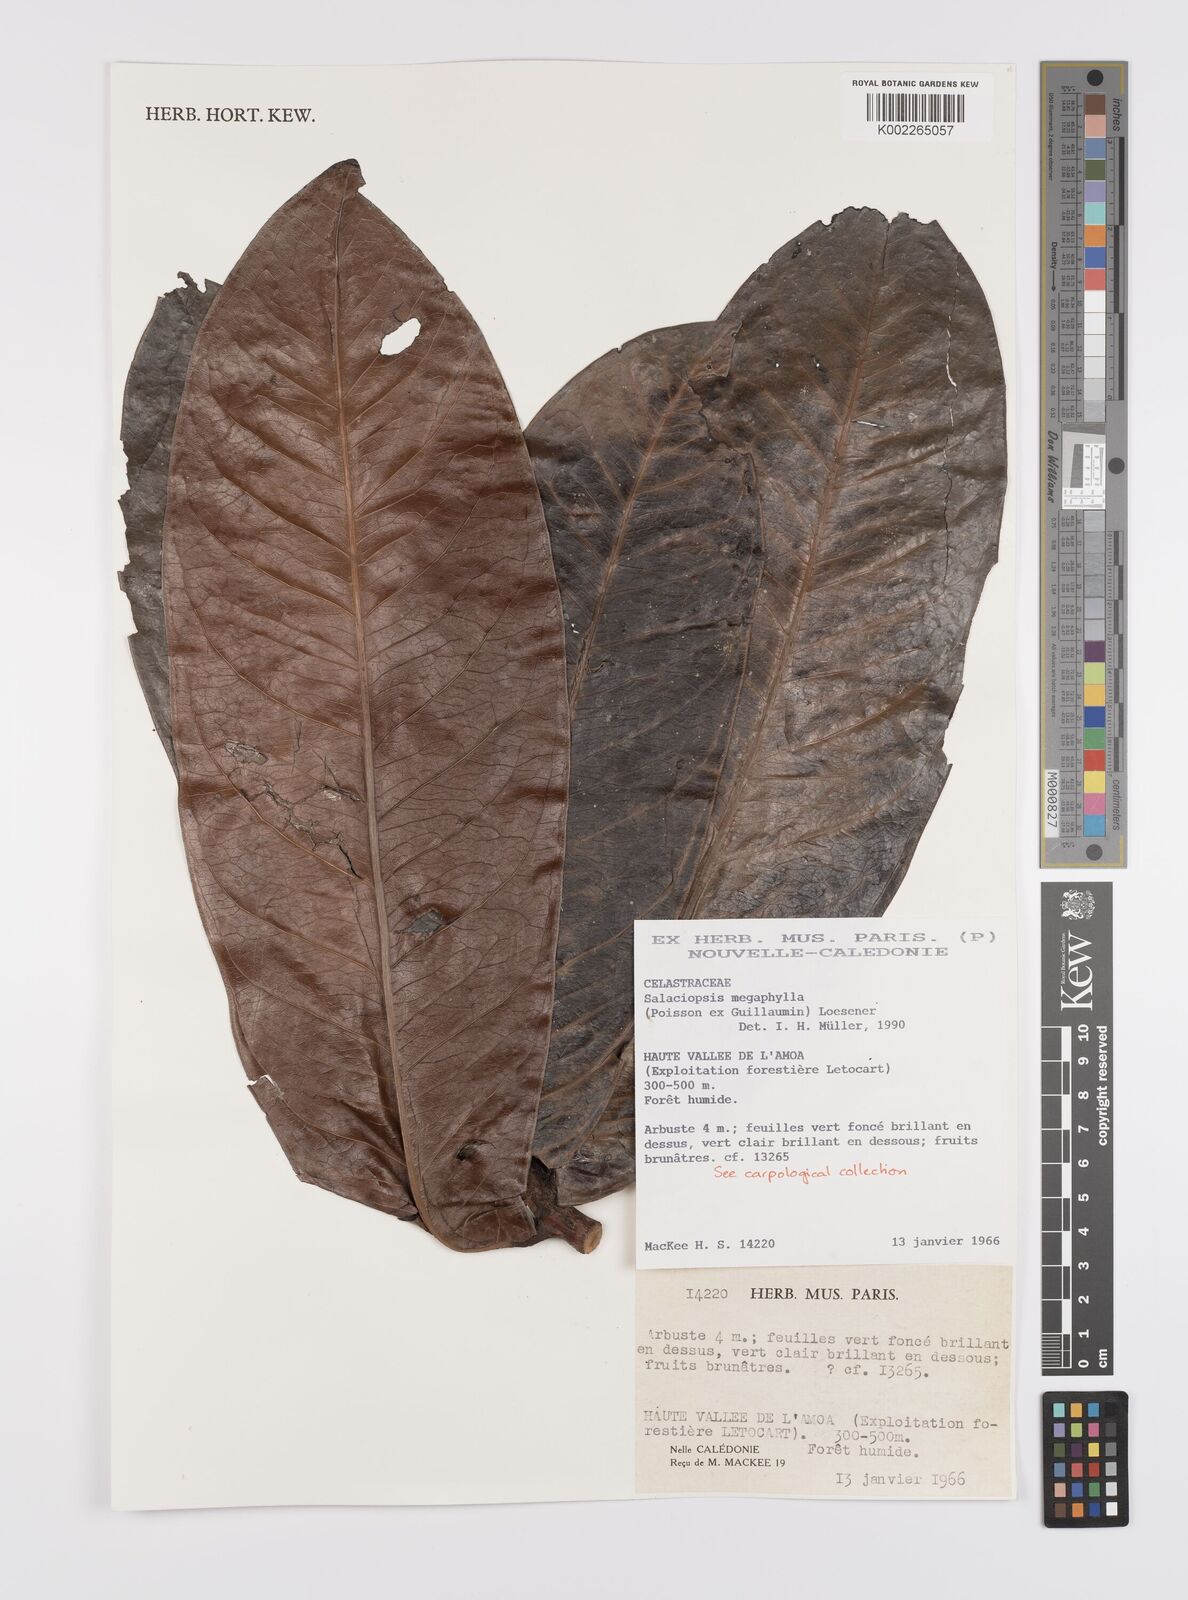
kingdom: Plantae
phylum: Tracheophyta
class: Magnoliopsida
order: Celastrales
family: Celastraceae
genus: Salaciopsis
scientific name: Salaciopsis megaphylla
